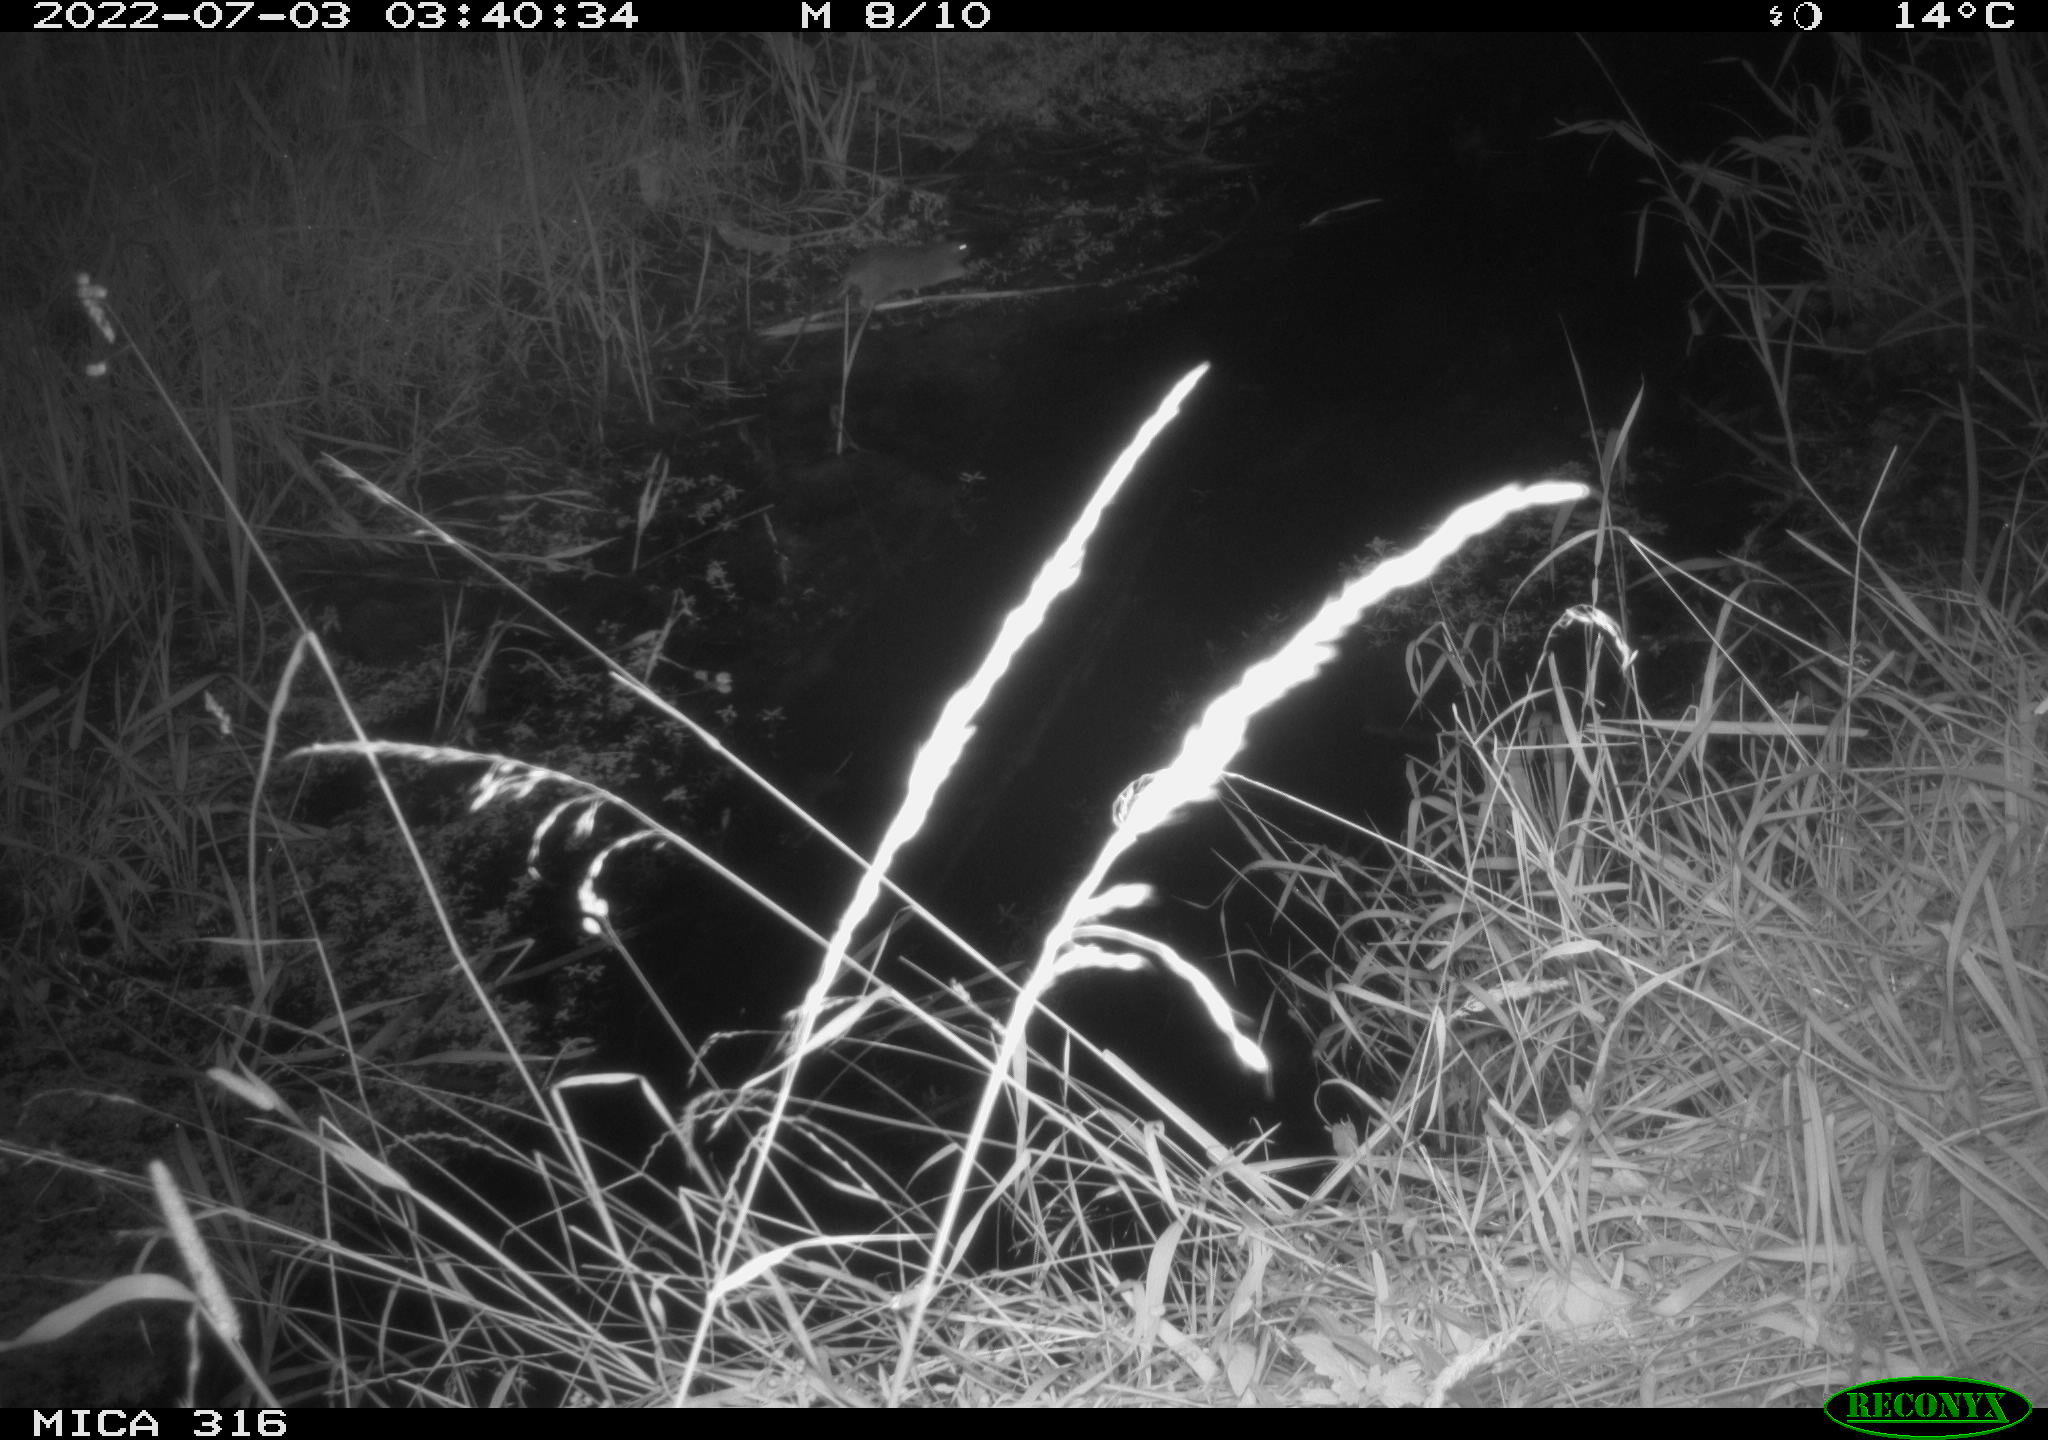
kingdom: Animalia
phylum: Chordata
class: Mammalia
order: Rodentia
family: Muridae
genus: Rattus
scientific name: Rattus norvegicus
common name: Brown rat
